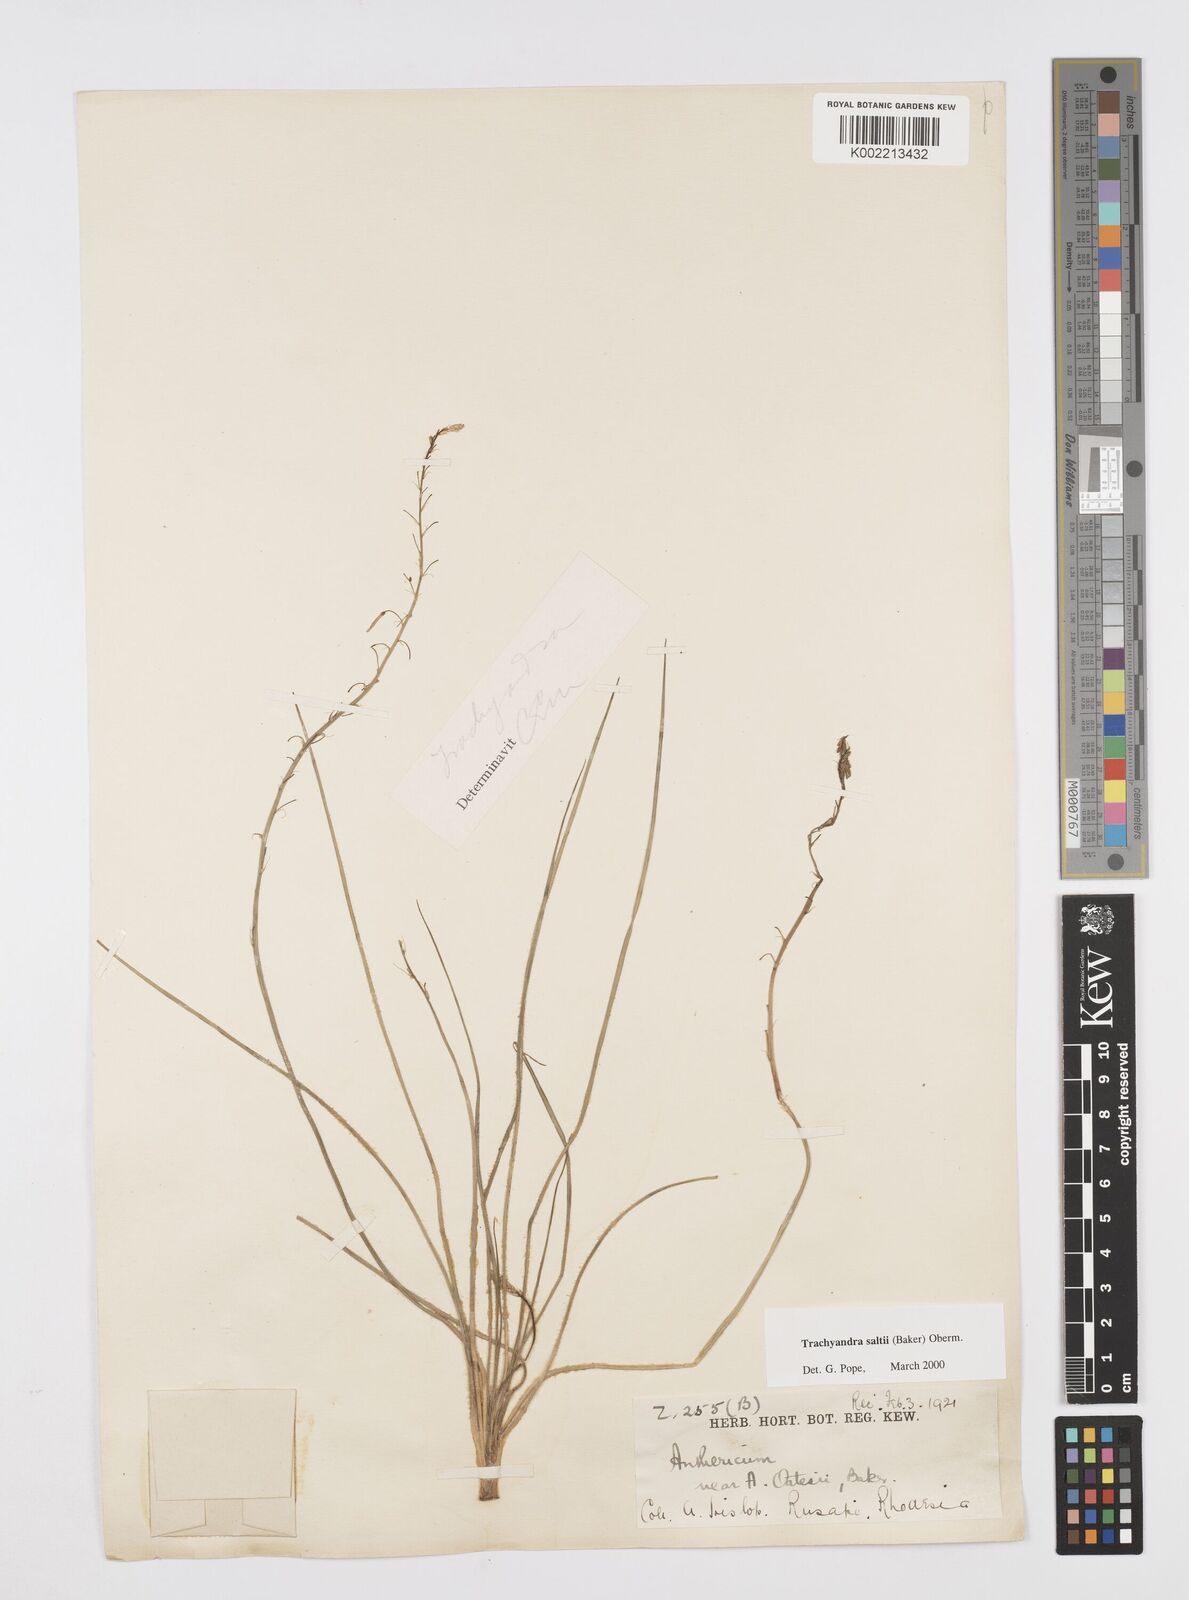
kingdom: Plantae
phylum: Tracheophyta
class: Liliopsida
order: Asparagales
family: Asphodelaceae
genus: Trachyandra
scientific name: Trachyandra saltii
